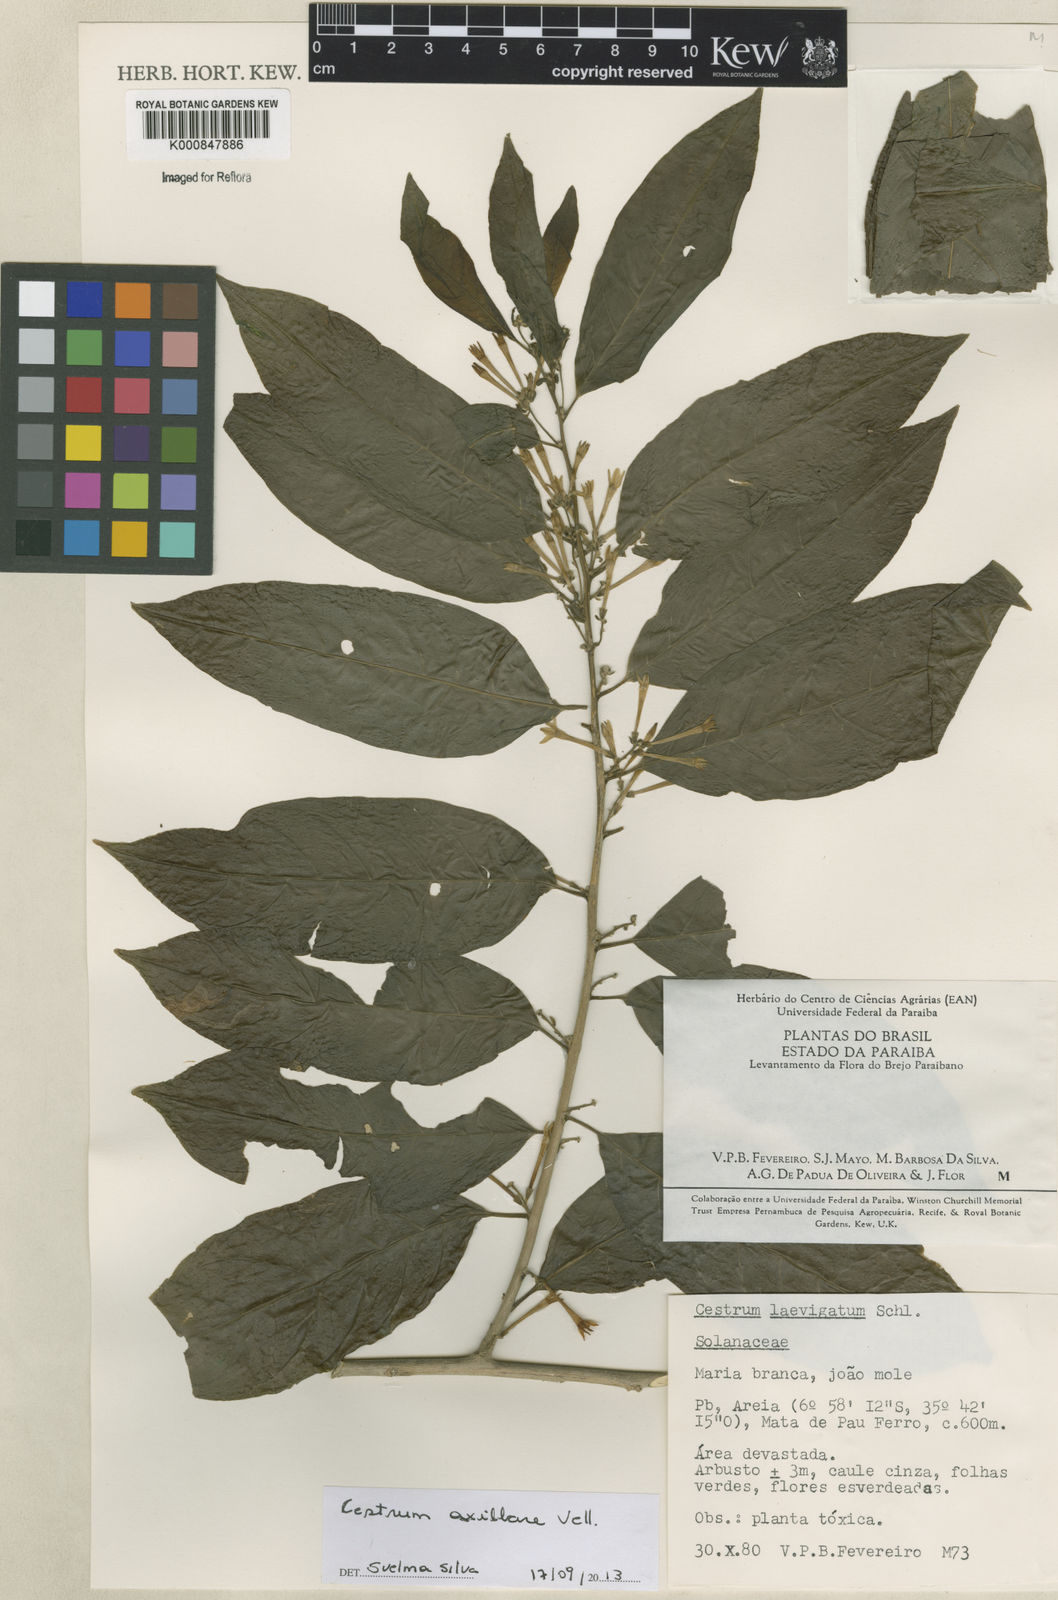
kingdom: Plantae
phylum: Tracheophyta
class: Magnoliopsida
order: Solanales
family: Solanaceae
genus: Cestrum
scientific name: Cestrum laevigatum
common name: Inkberry
